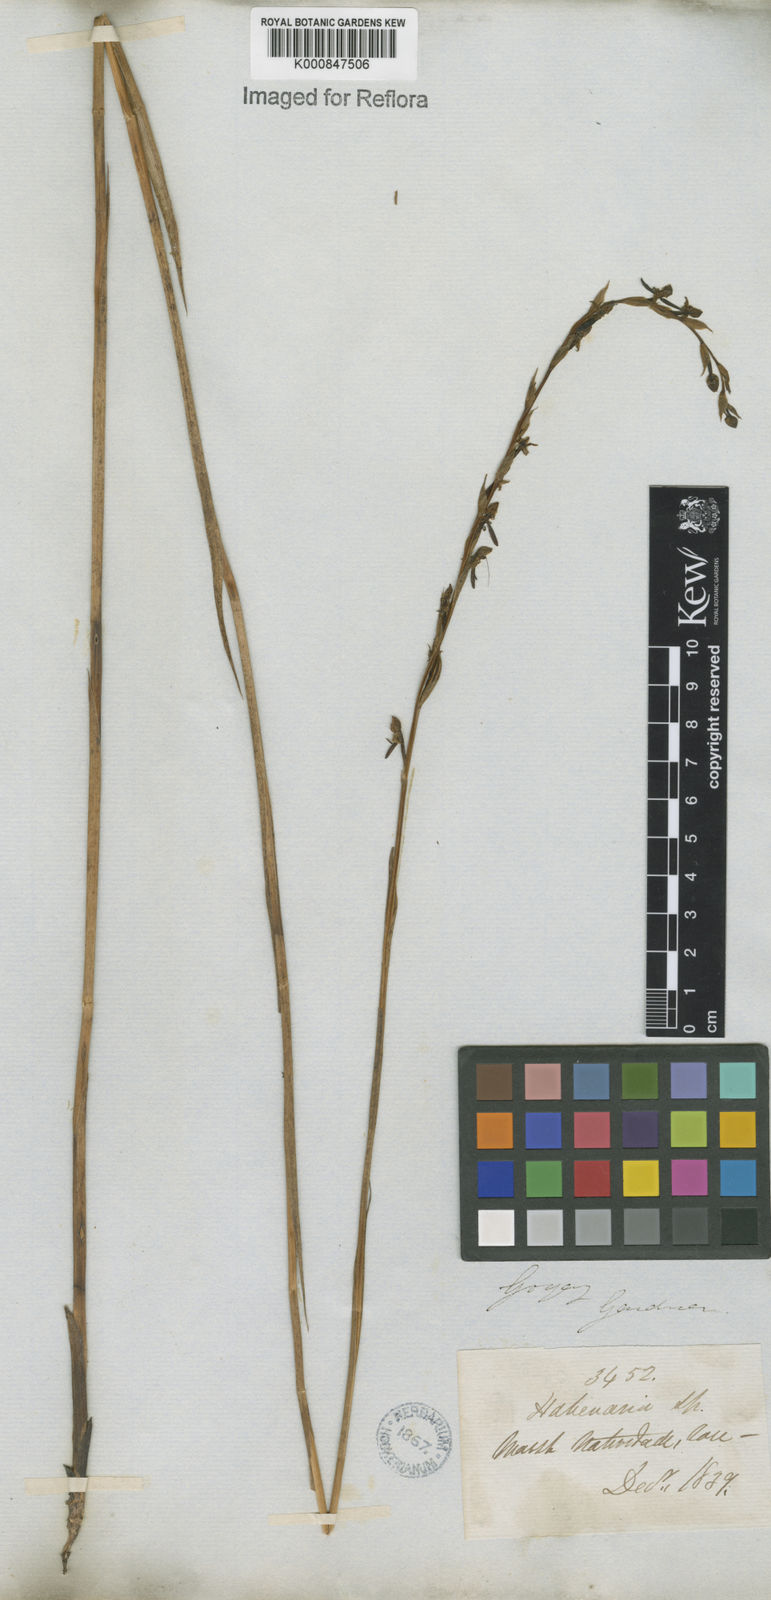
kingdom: Plantae
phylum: Tracheophyta
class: Liliopsida
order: Asparagales
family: Orchidaceae
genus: Habenaria
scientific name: Habenaria
